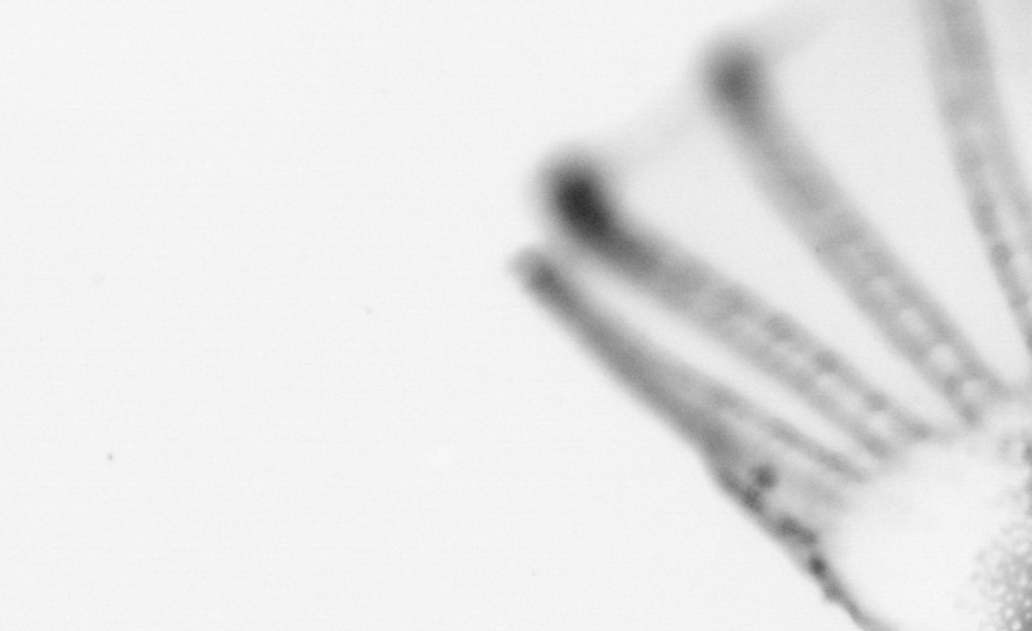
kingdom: Animalia
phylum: Chordata
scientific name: Chordata
